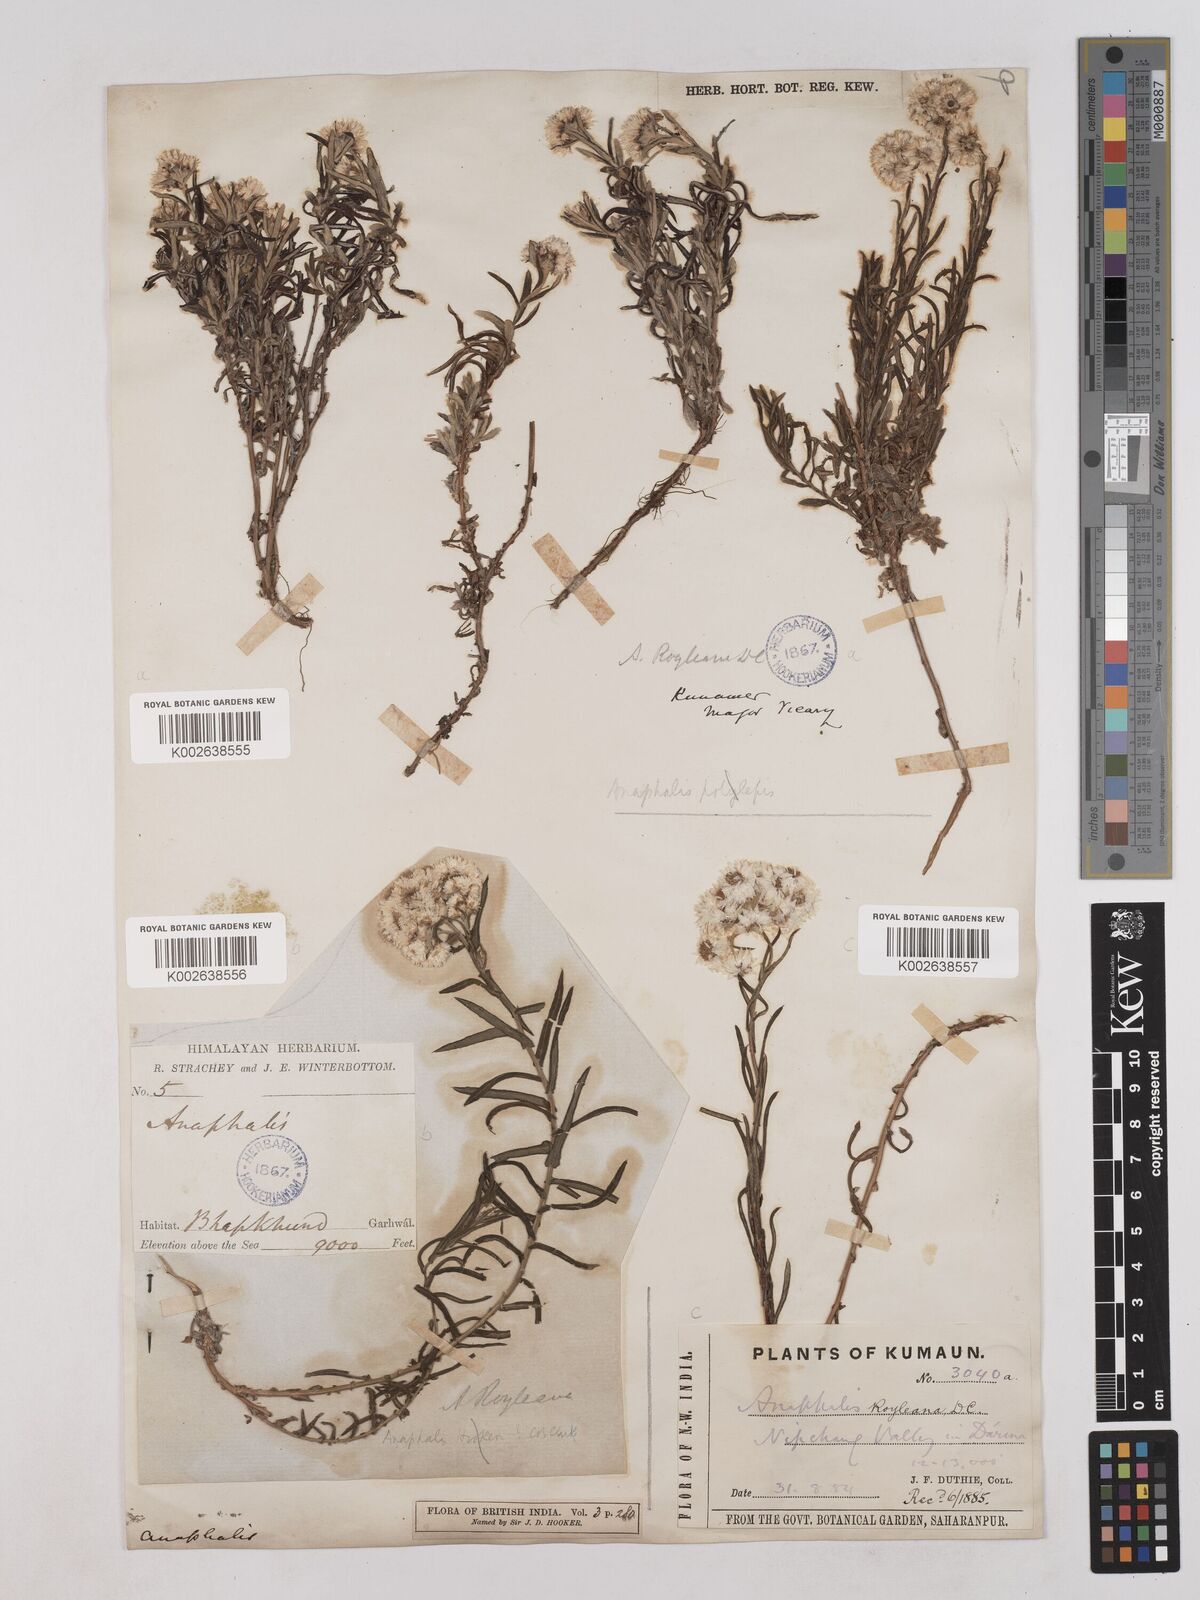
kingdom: Plantae
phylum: Tracheophyta
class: Magnoliopsida
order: Asterales
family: Asteraceae
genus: Anaphalis
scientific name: Anaphalis royleana
